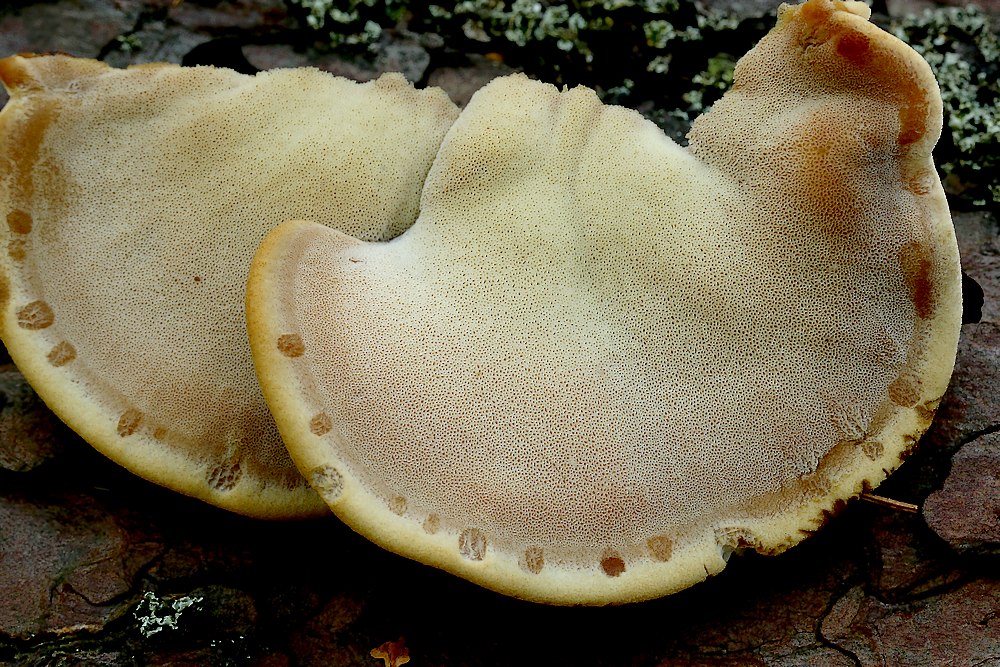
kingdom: Fungi
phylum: Basidiomycota
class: Agaricomycetes
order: Polyporales
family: Ischnodermataceae
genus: Ischnoderma
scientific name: Ischnoderma benzoinum
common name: gran-tjæreporesvamp
